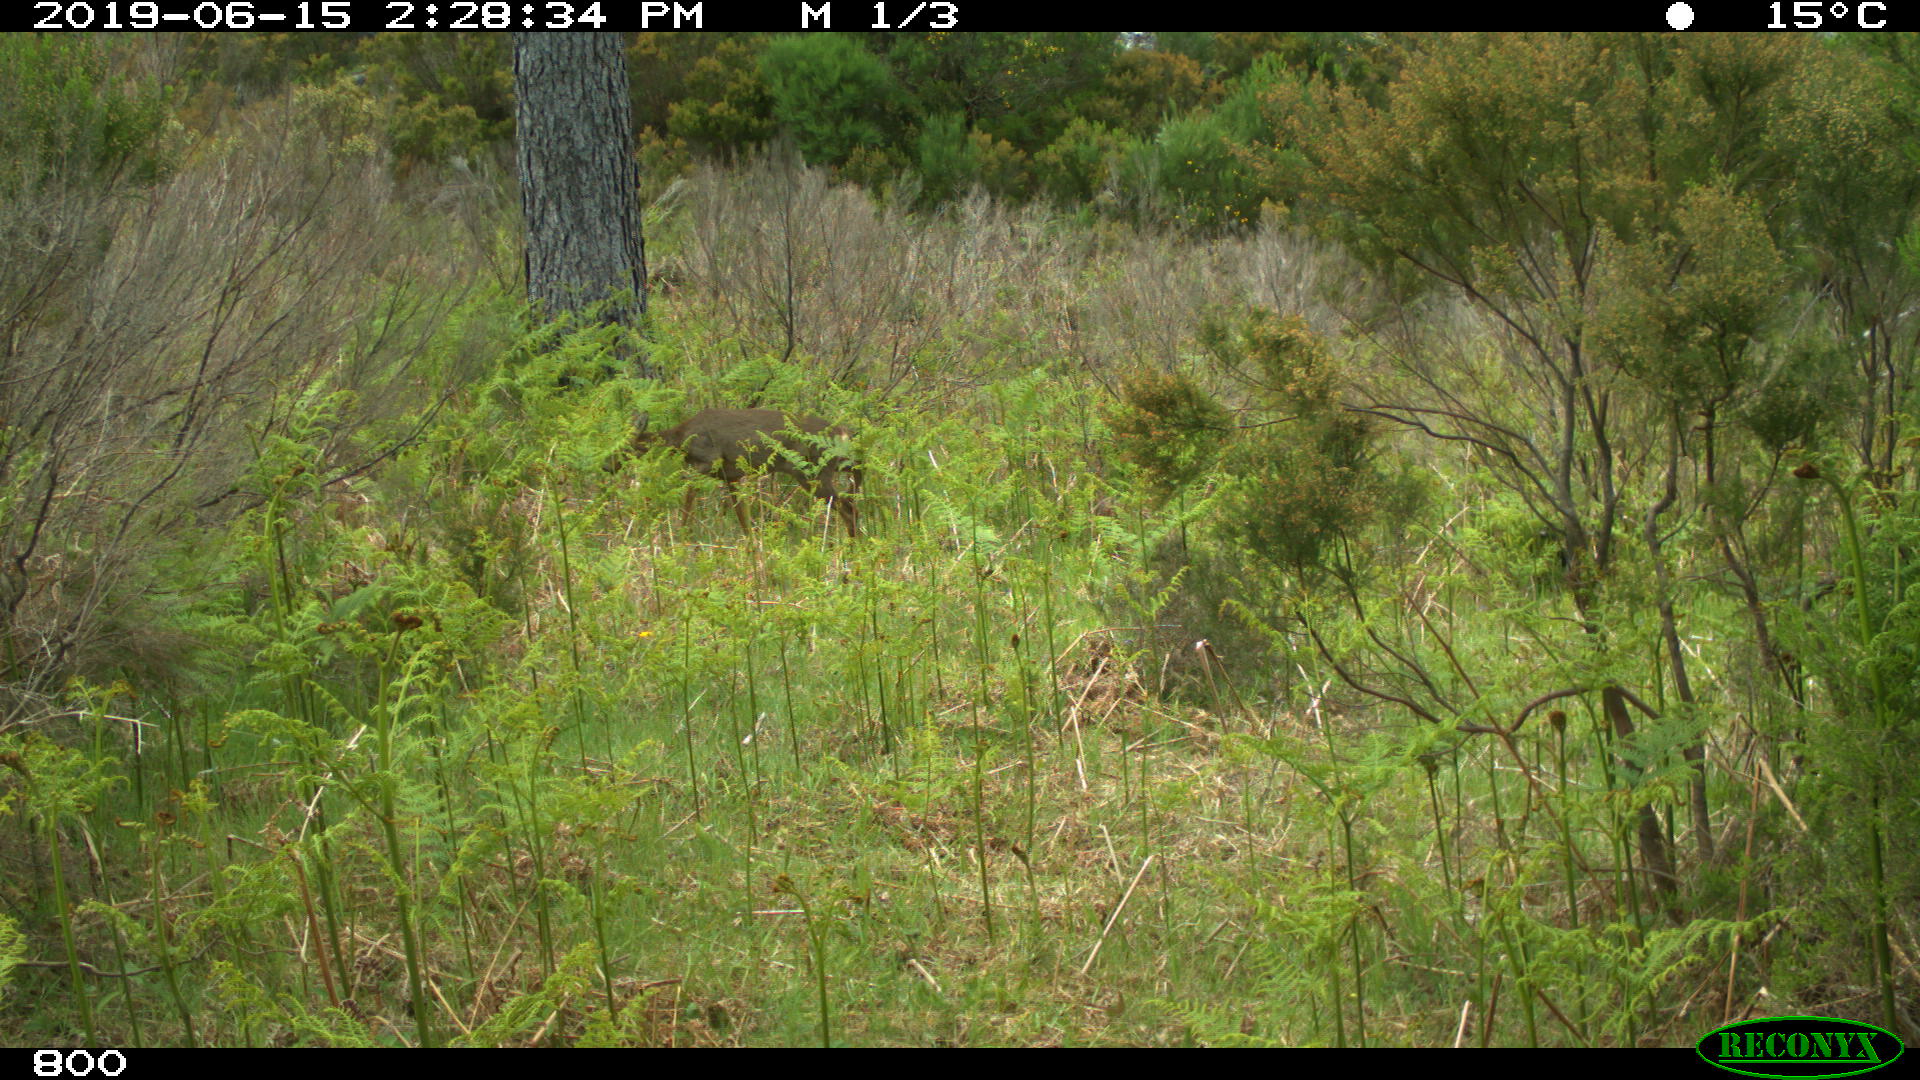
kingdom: Animalia
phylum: Chordata
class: Mammalia
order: Artiodactyla
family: Cervidae
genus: Capreolus
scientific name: Capreolus capreolus
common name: Western roe deer
